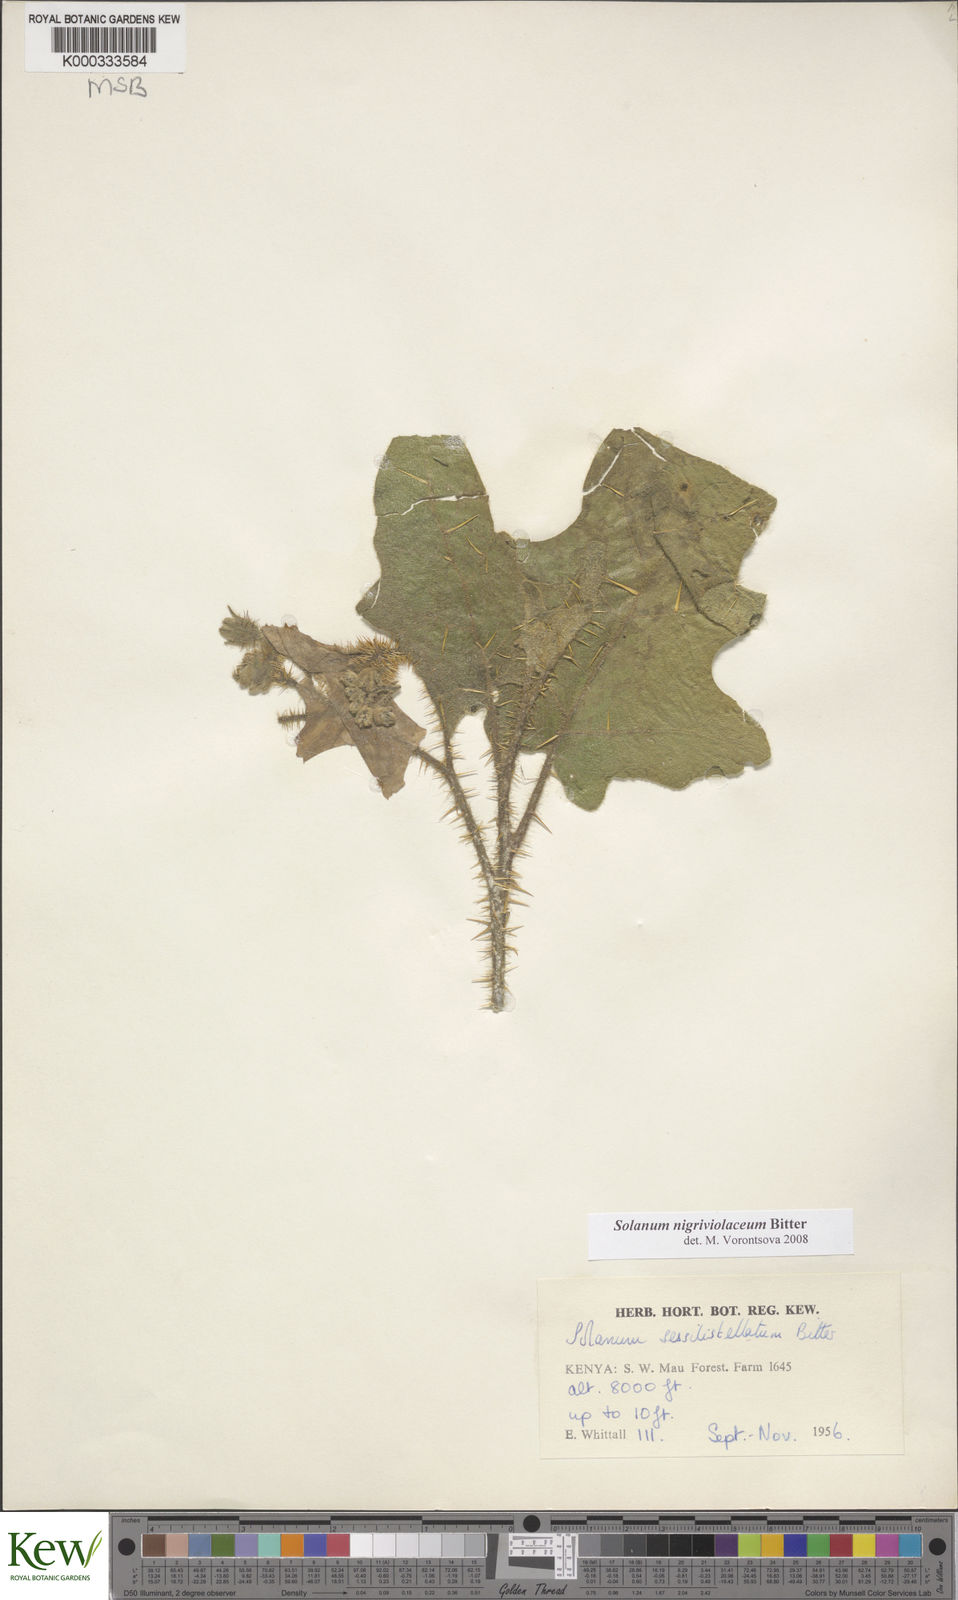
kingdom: Plantae
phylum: Tracheophyta
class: Magnoliopsida
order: Solanales
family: Solanaceae
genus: Solanum
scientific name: Solanum nigriviolaceum
